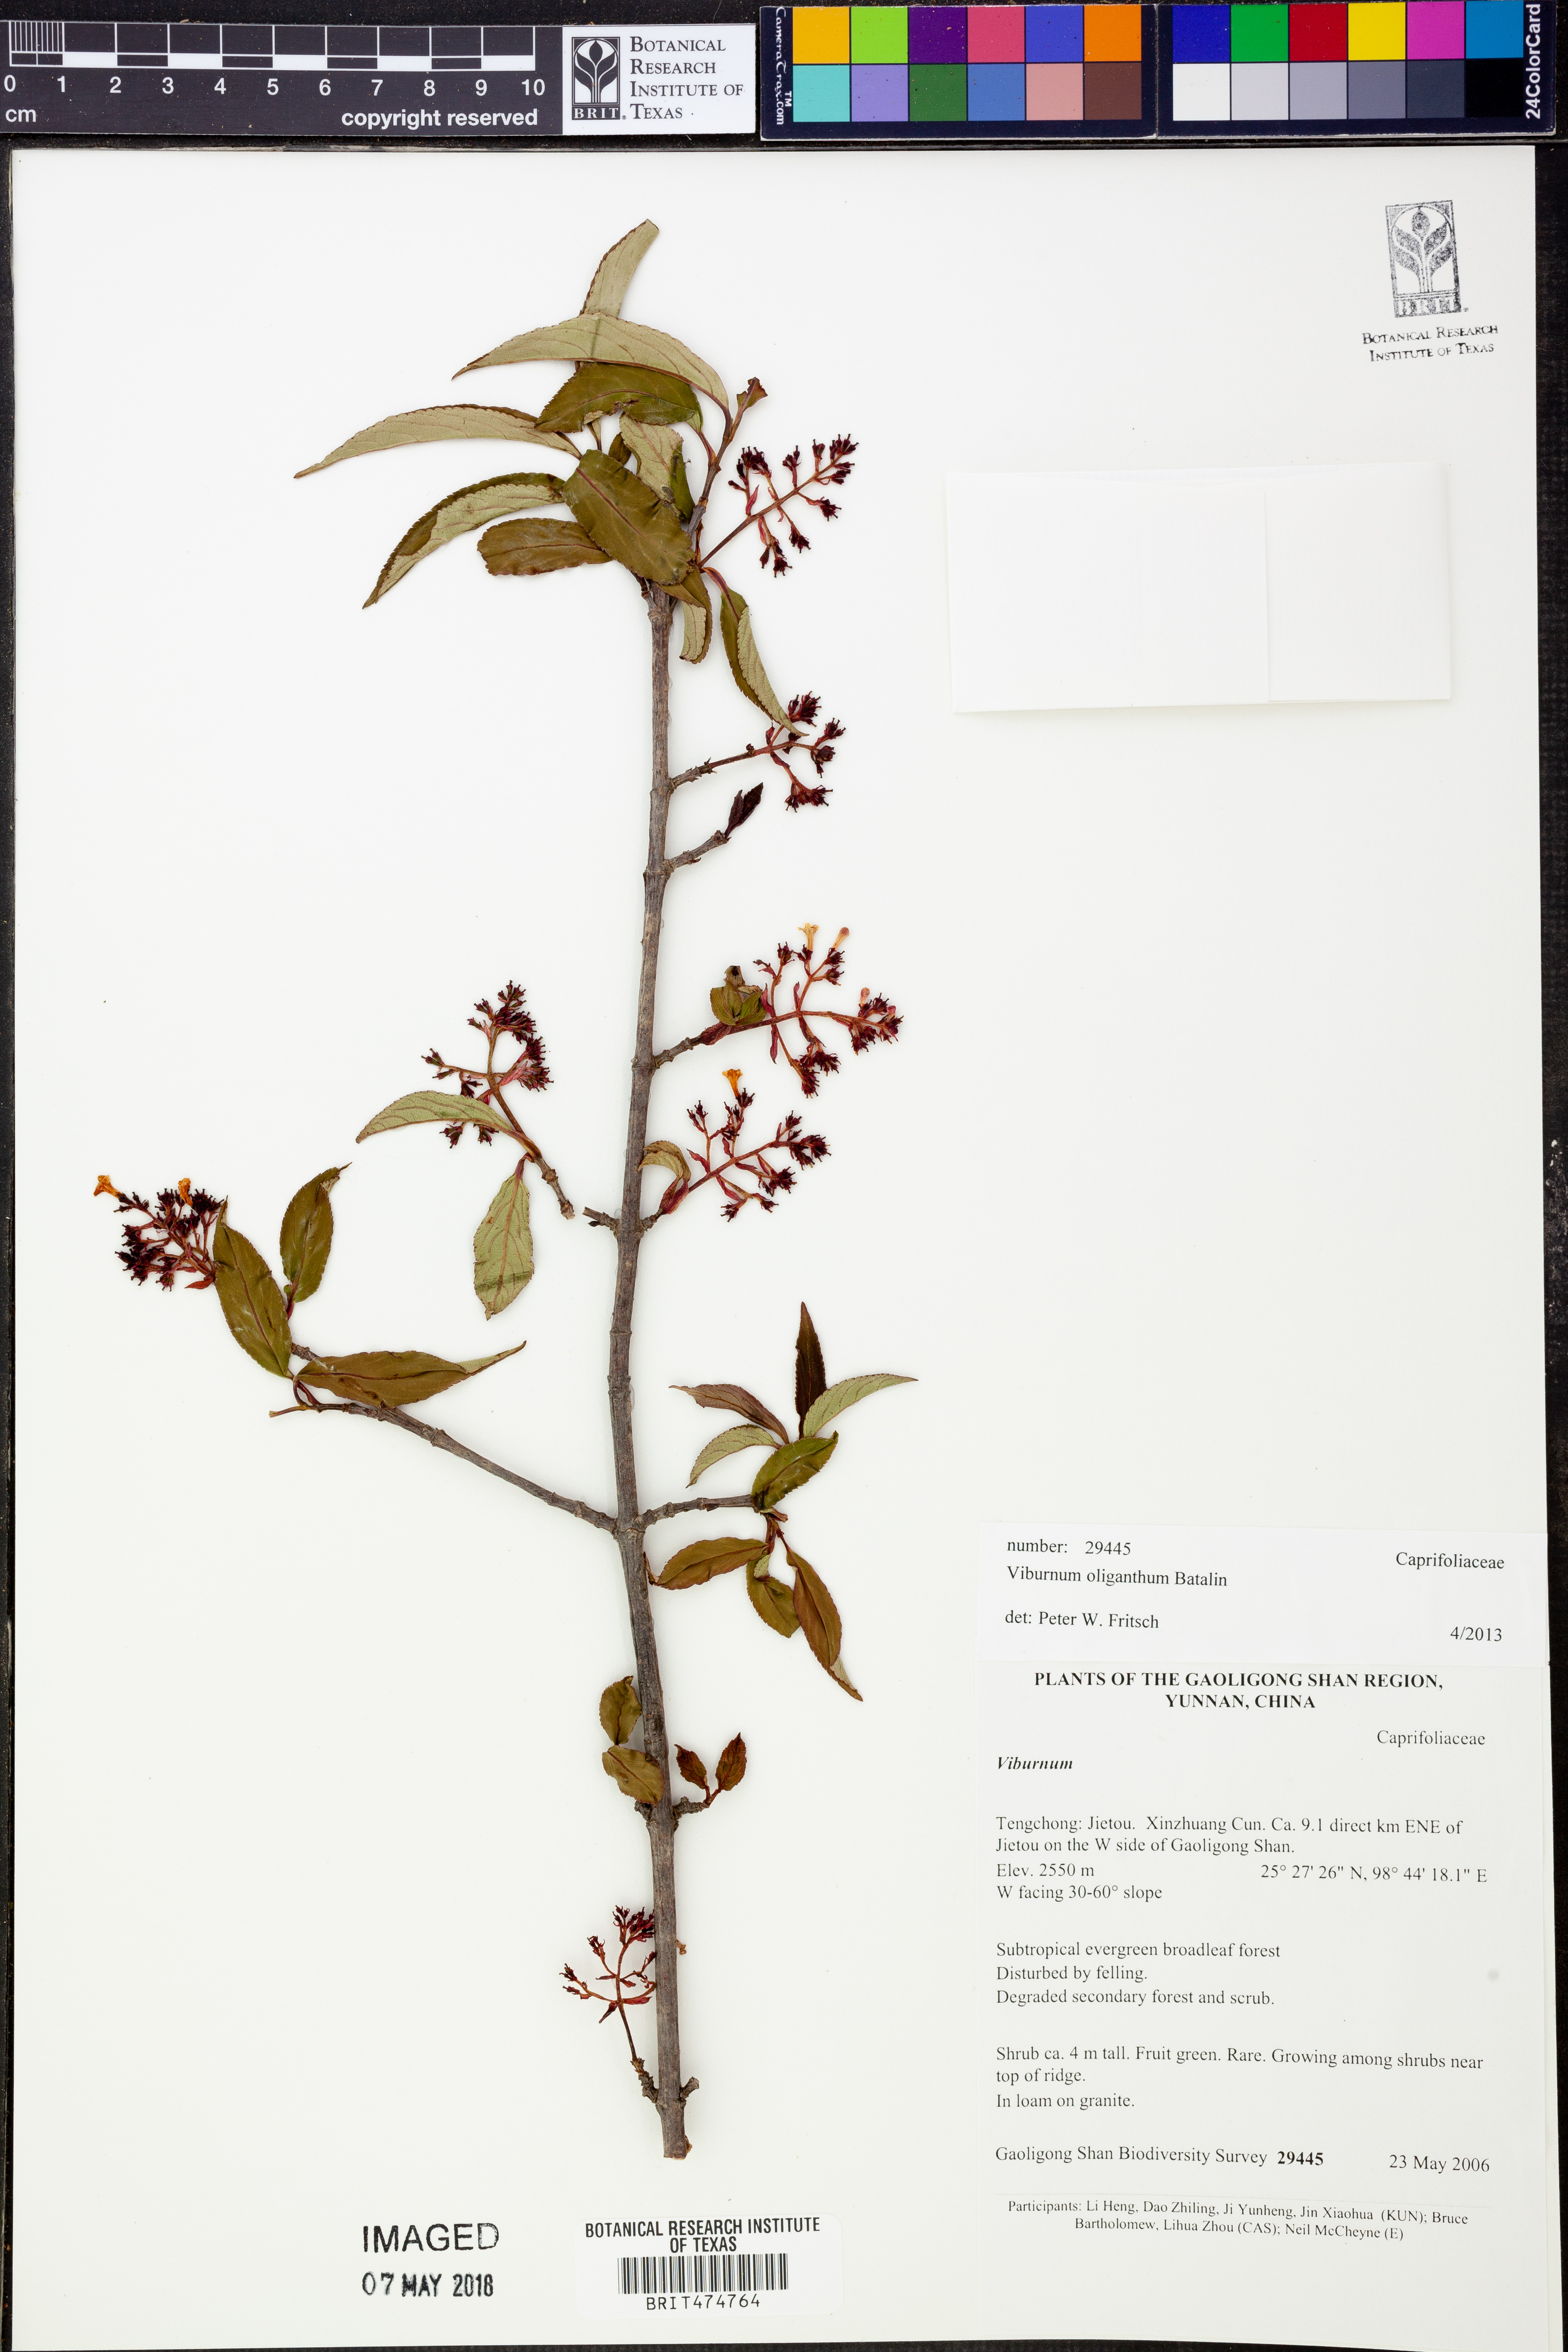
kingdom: Plantae
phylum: Tracheophyta
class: Magnoliopsida
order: Dipsacales
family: Viburnaceae
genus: Viburnum
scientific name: Viburnum oliganthum
